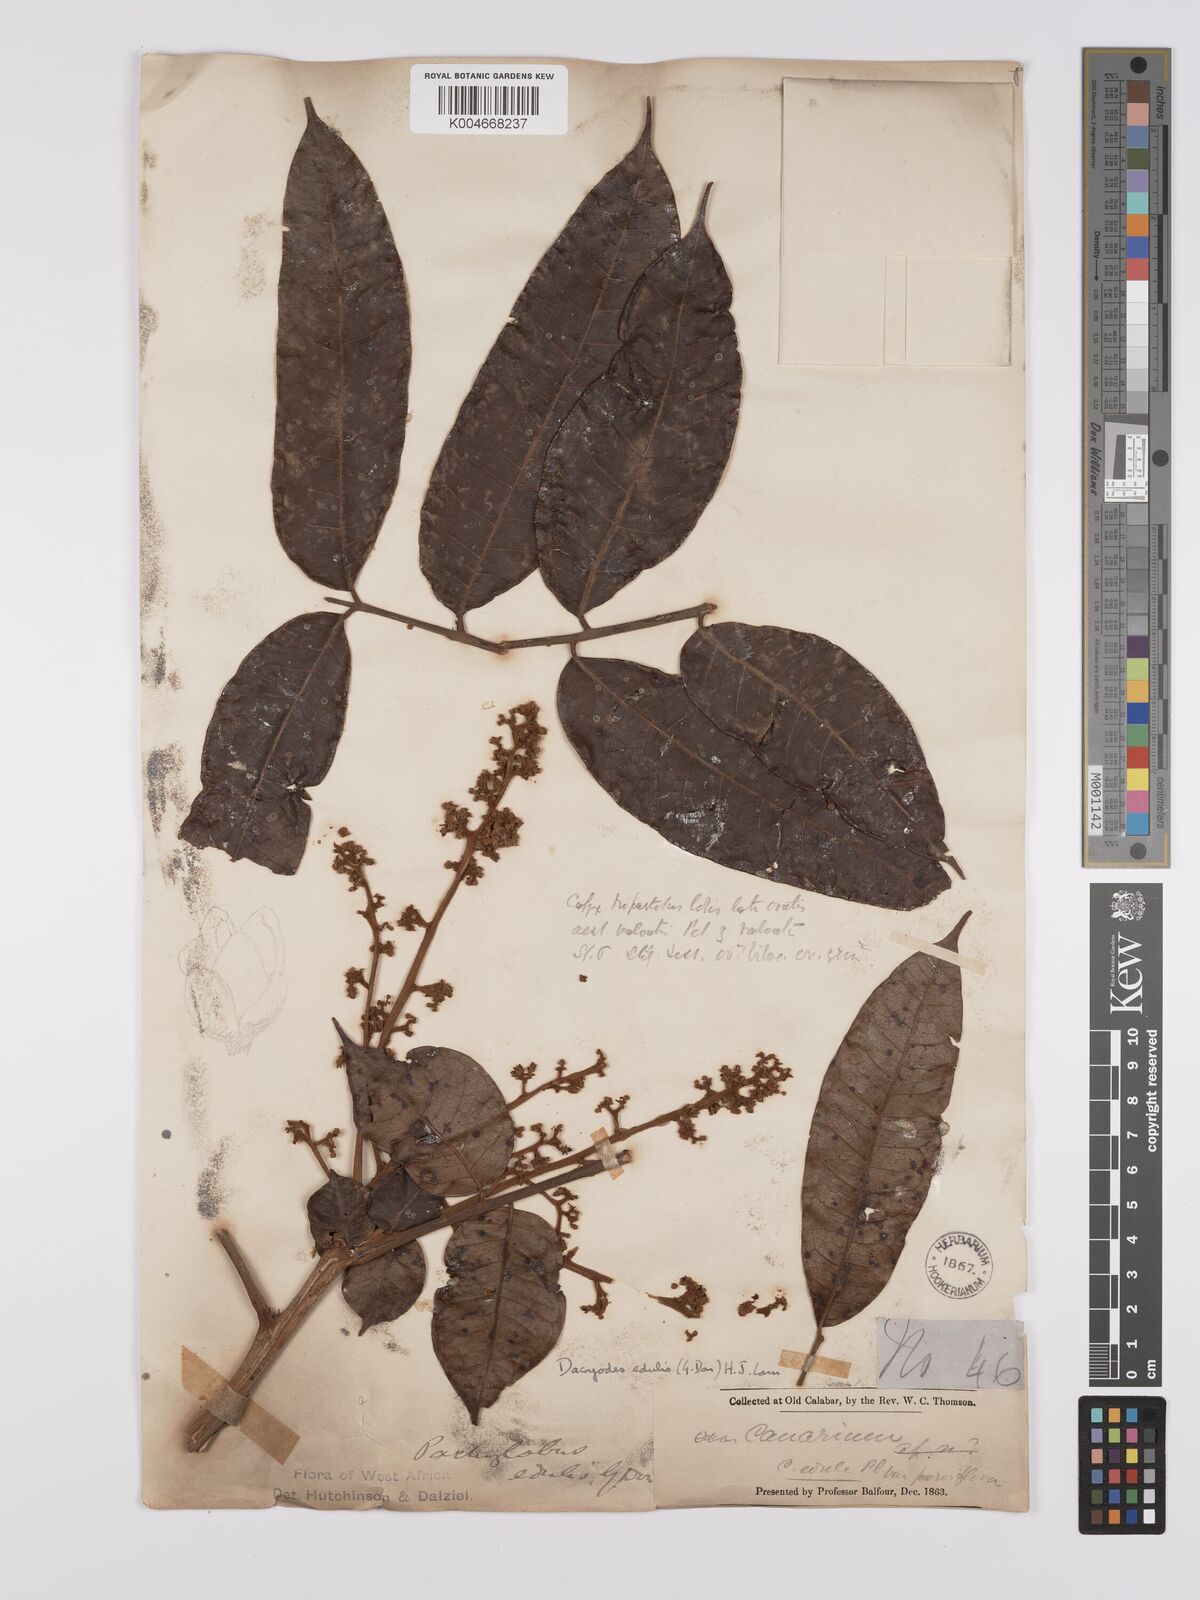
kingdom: Plantae
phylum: Tracheophyta
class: Magnoliopsida
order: Sapindales
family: Burseraceae
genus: Pachylobus
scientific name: Pachylobus edulis
